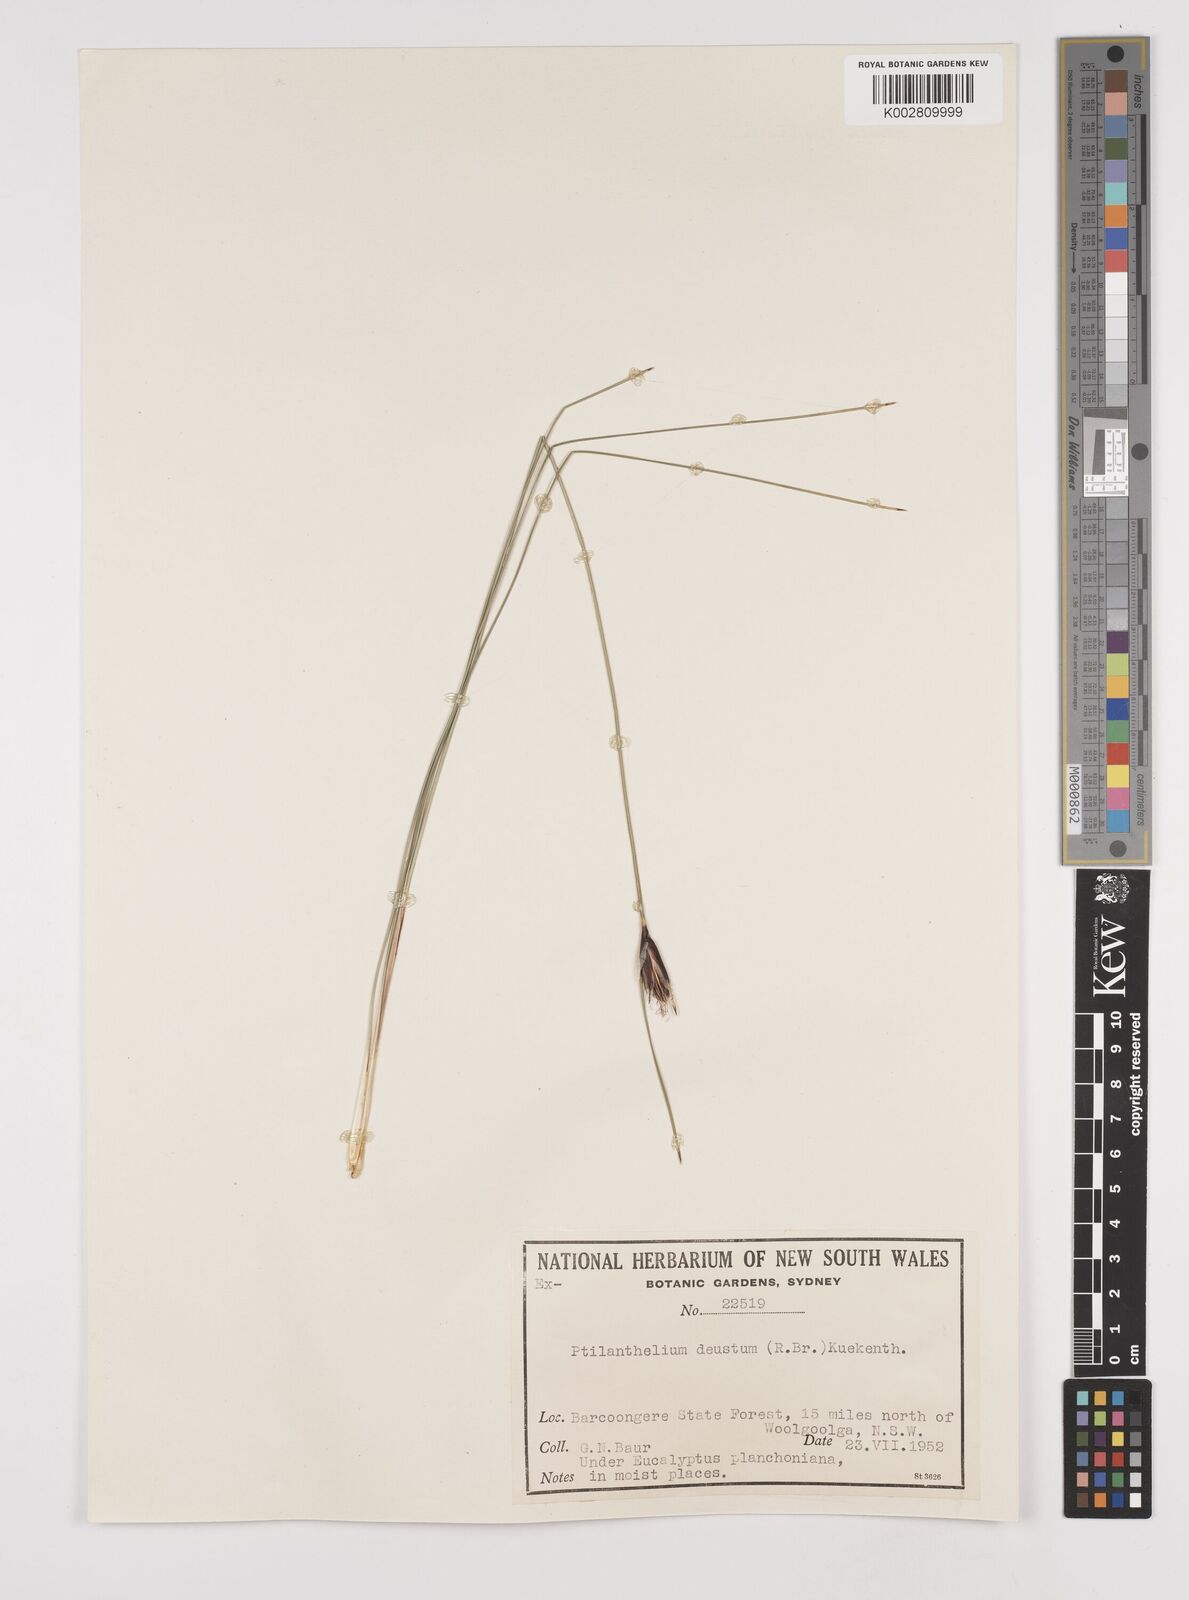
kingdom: Plantae
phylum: Tracheophyta
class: Liliopsida
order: Poales
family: Cyperaceae
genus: Ptilothrix
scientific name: Ptilothrix deusta
